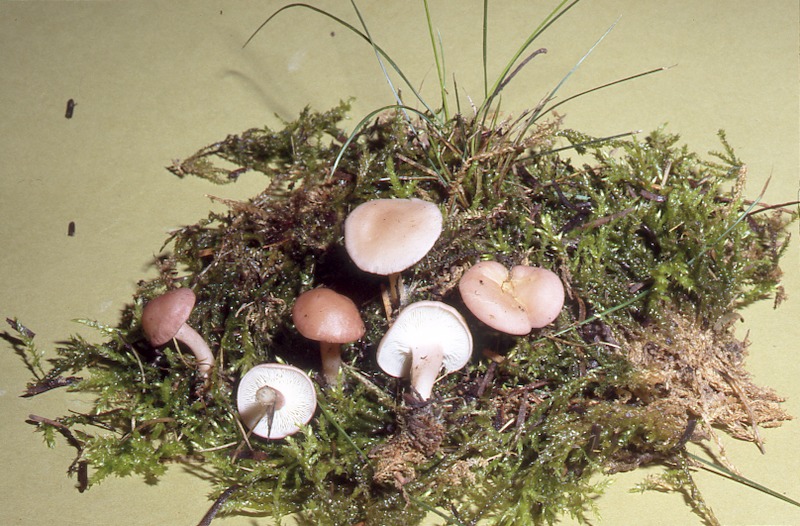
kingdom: Fungi
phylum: Basidiomycota
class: Agaricomycetes
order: Agaricales
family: Lyophyllaceae
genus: Calocybe
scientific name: Calocybe carnea
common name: Pink domecap
